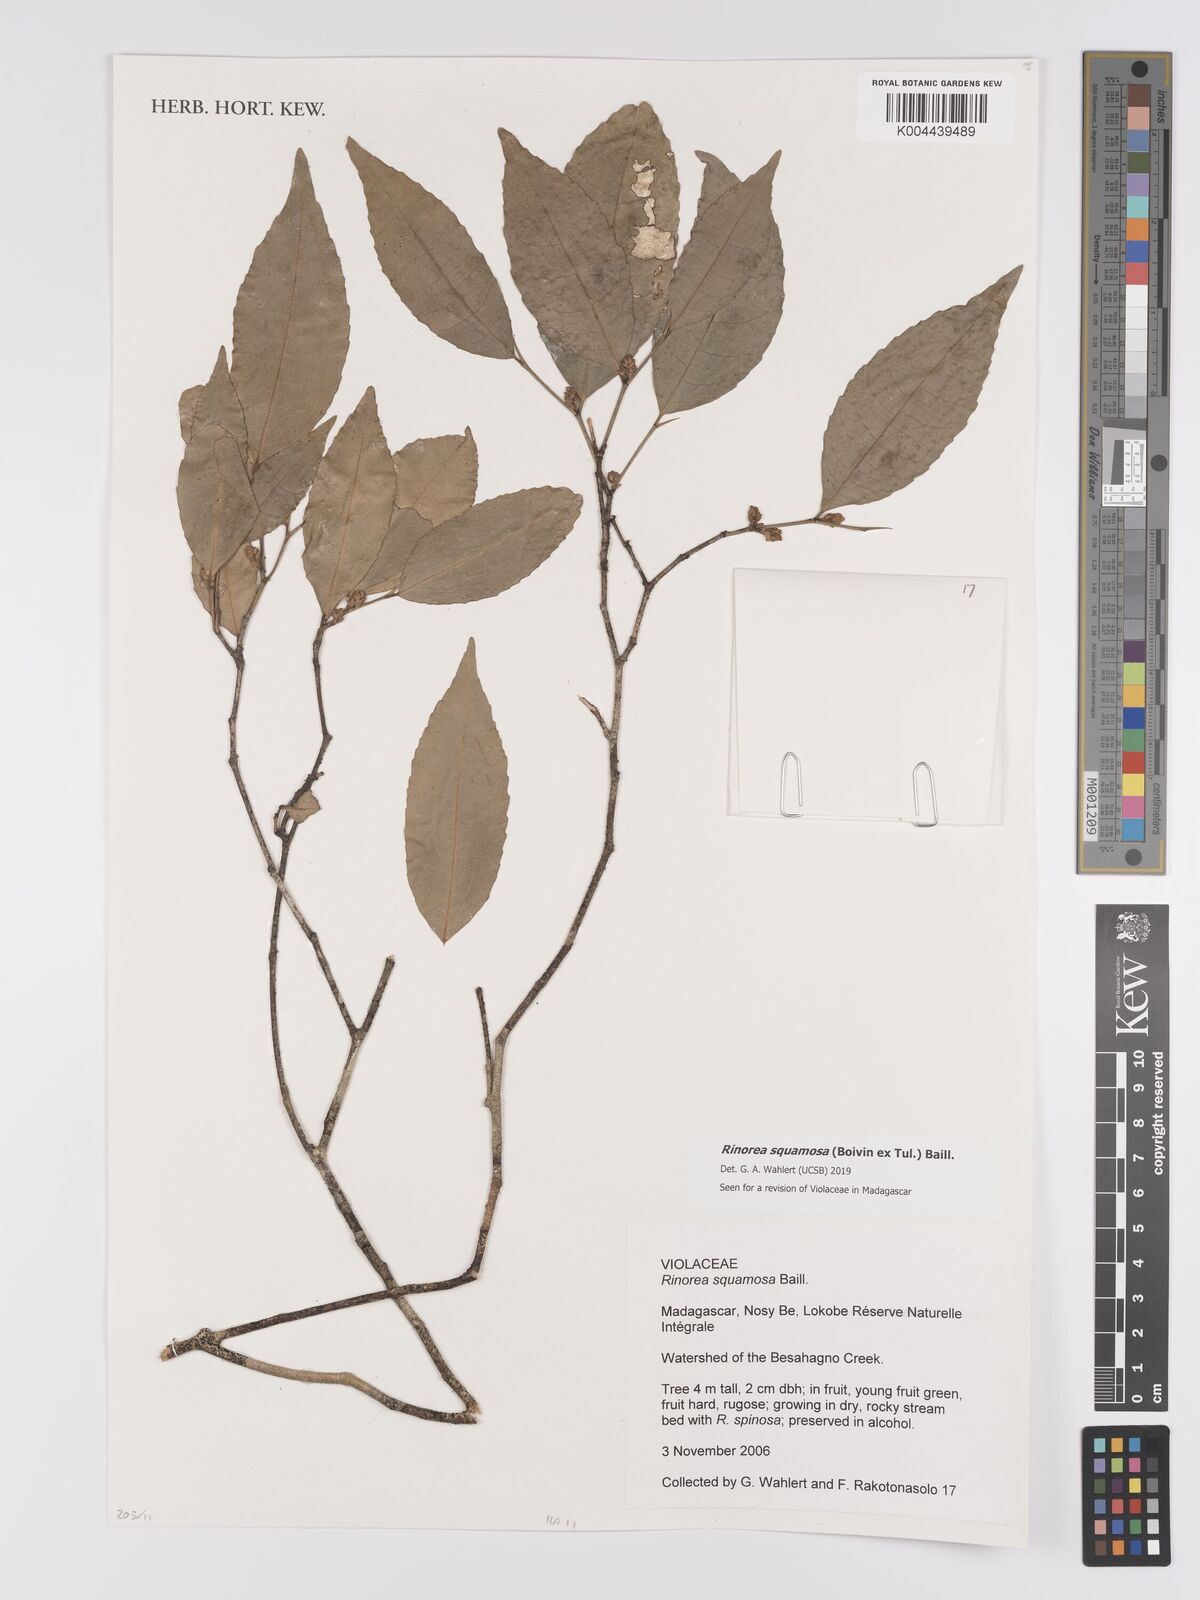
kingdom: Plantae
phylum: Tracheophyta
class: Magnoliopsida
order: Malpighiales
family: Violaceae
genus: Rinorea
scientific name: Rinorea squamosa
